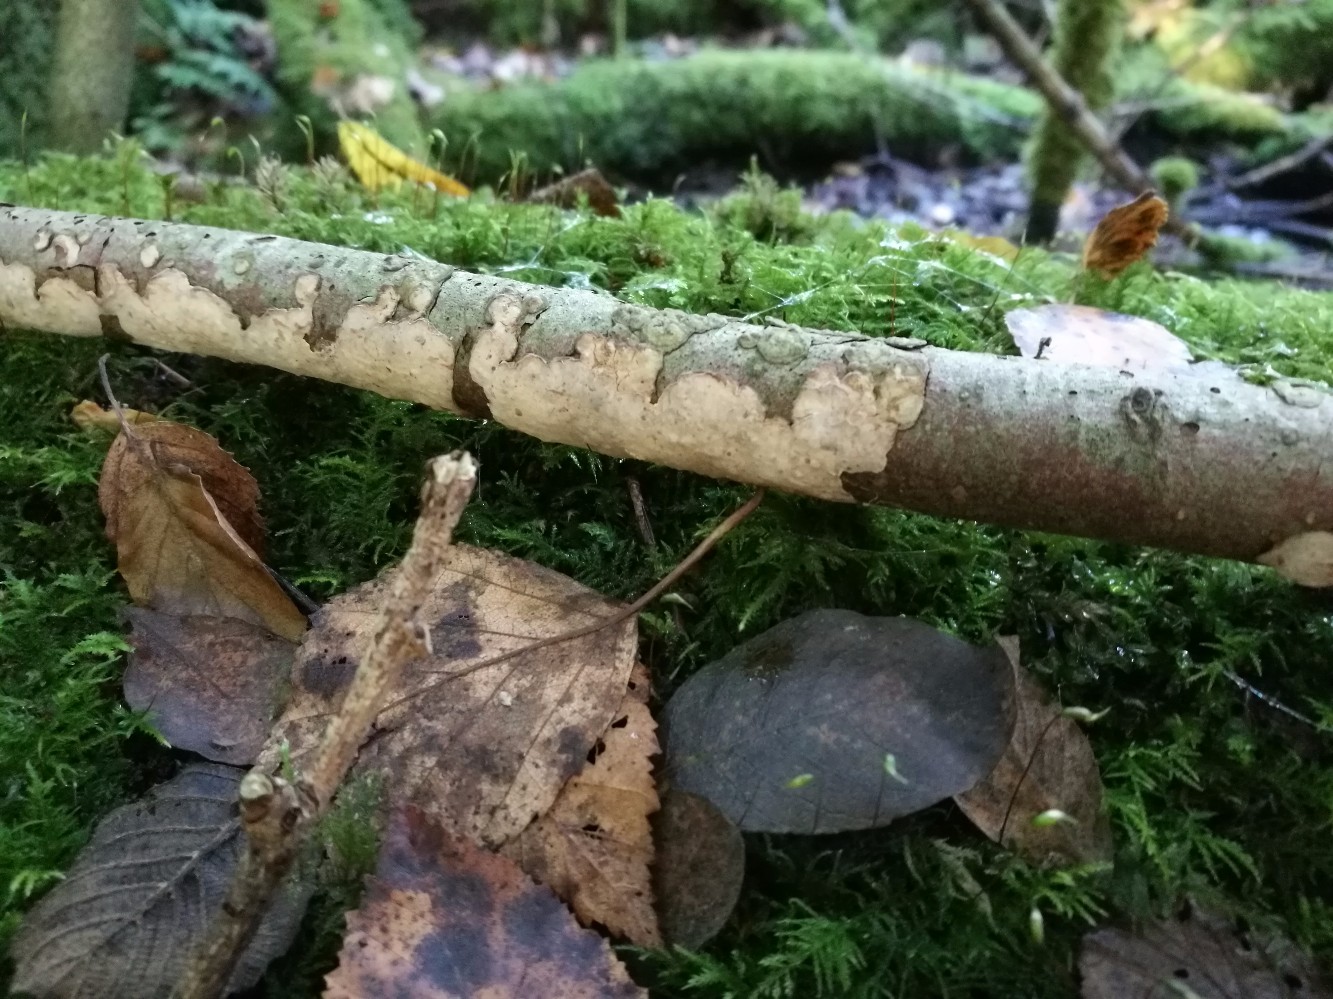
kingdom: Fungi
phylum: Basidiomycota
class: Agaricomycetes
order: Russulales
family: Stereaceae
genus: Stereum
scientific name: Stereum rugosum
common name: rynket lædersvamp
